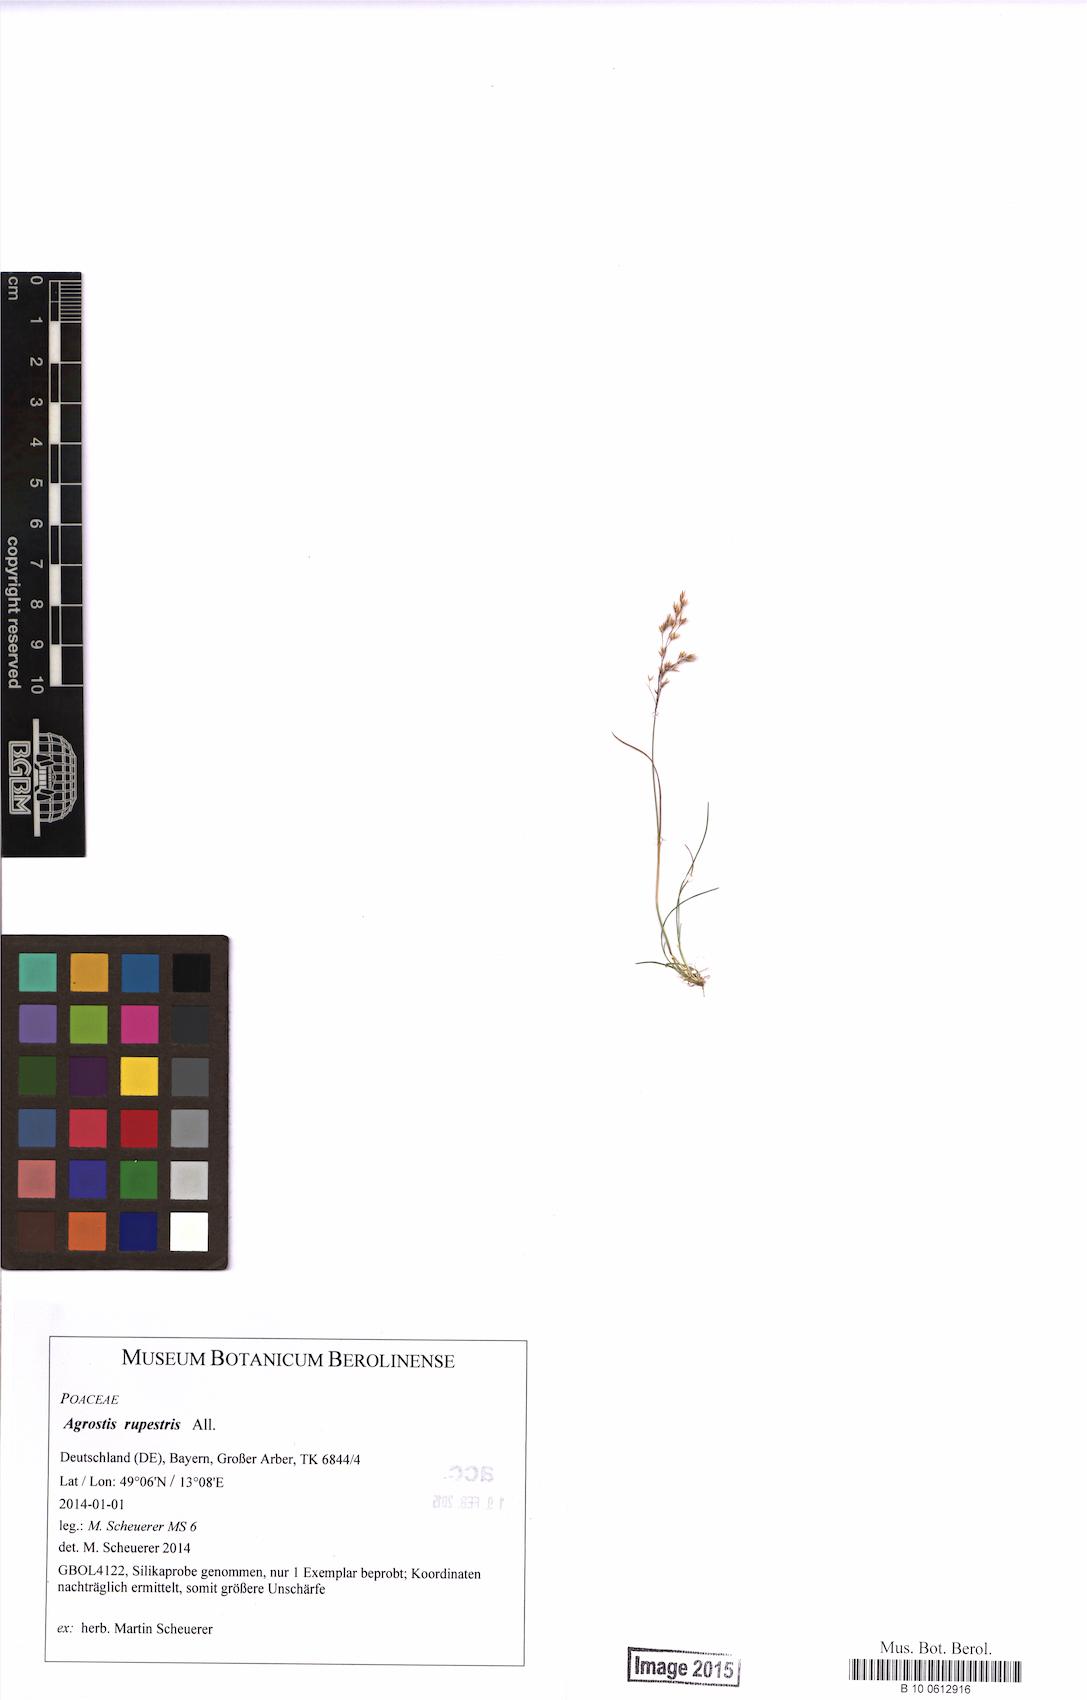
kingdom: Plantae
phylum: Tracheophyta
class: Liliopsida
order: Poales
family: Poaceae
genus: Agrostis
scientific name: Agrostis rupestris
